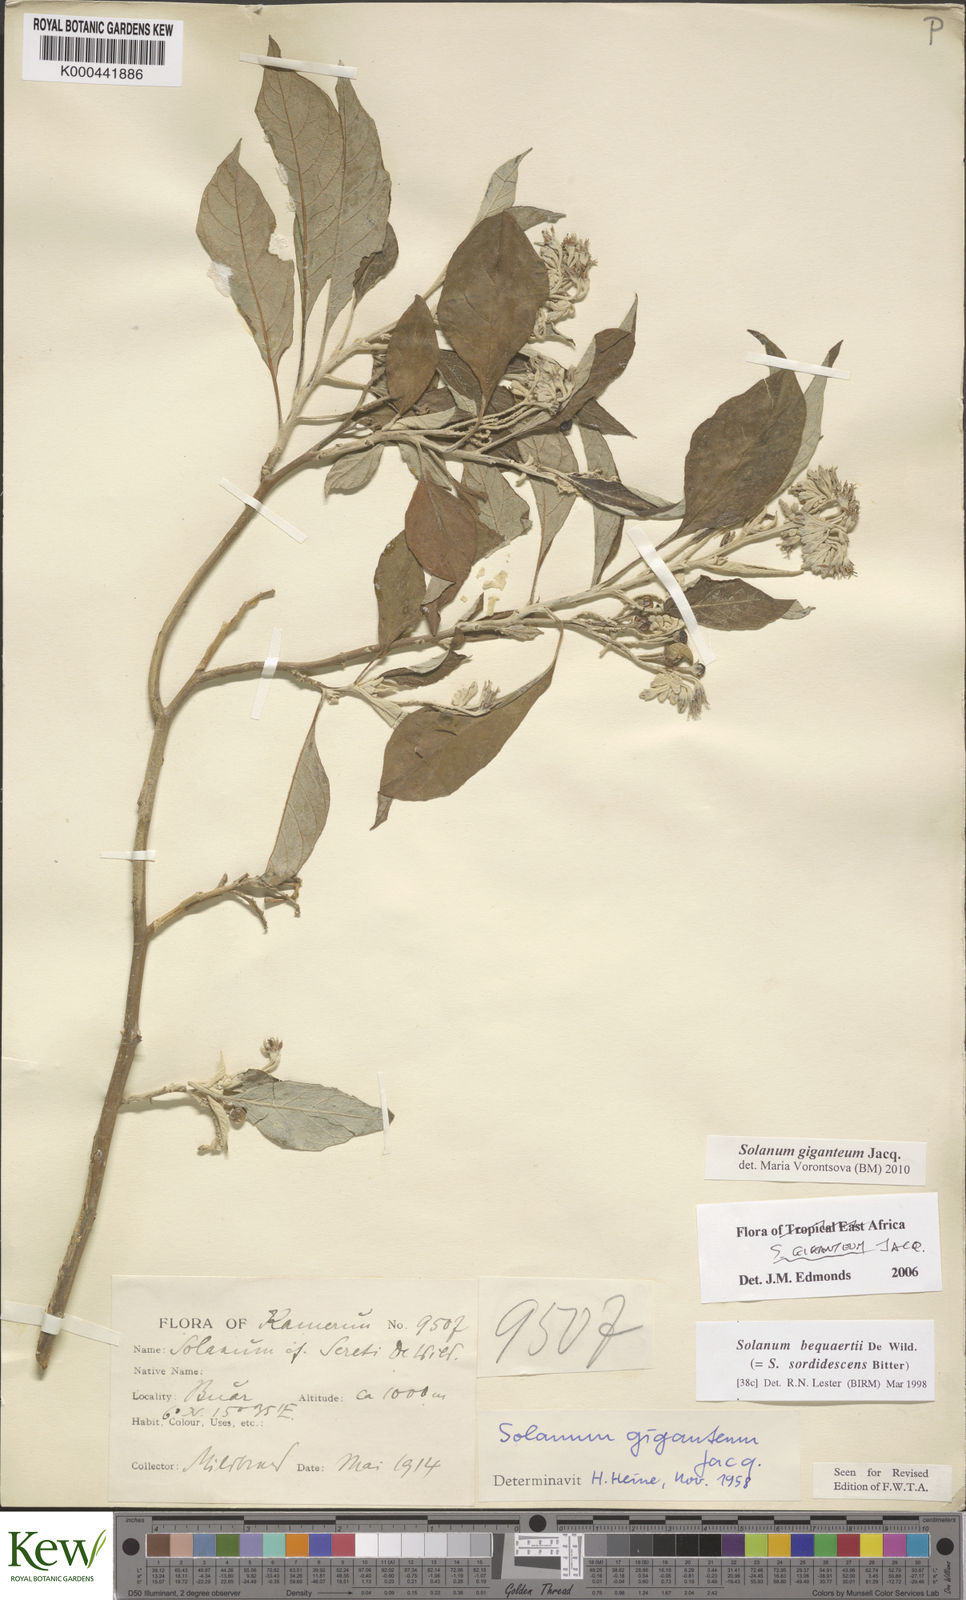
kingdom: Plantae
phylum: Tracheophyta
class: Magnoliopsida
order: Solanales
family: Solanaceae
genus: Solanum
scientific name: Solanum giganteum
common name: Healing-leaf-tree
